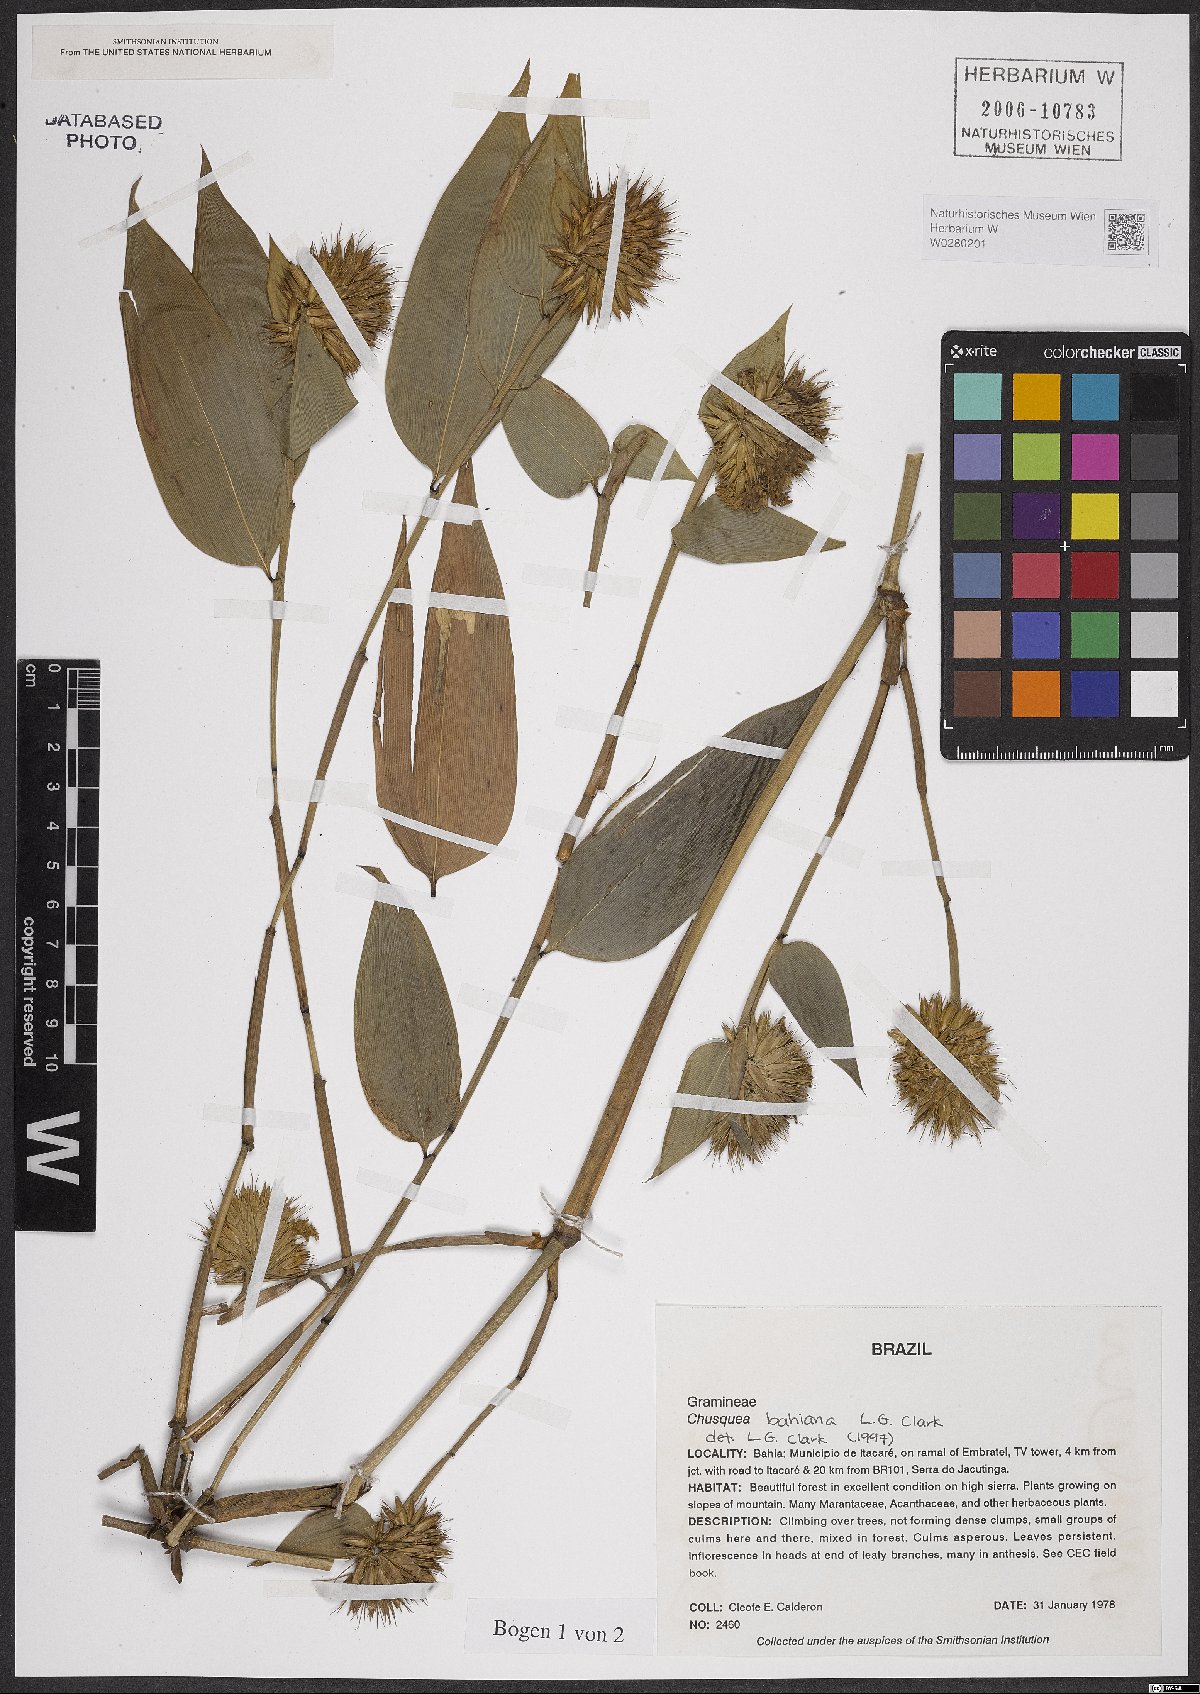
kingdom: Plantae
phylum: Tracheophyta
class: Liliopsida
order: Poales
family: Poaceae
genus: Chusquea
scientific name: Chusquea bahiana
